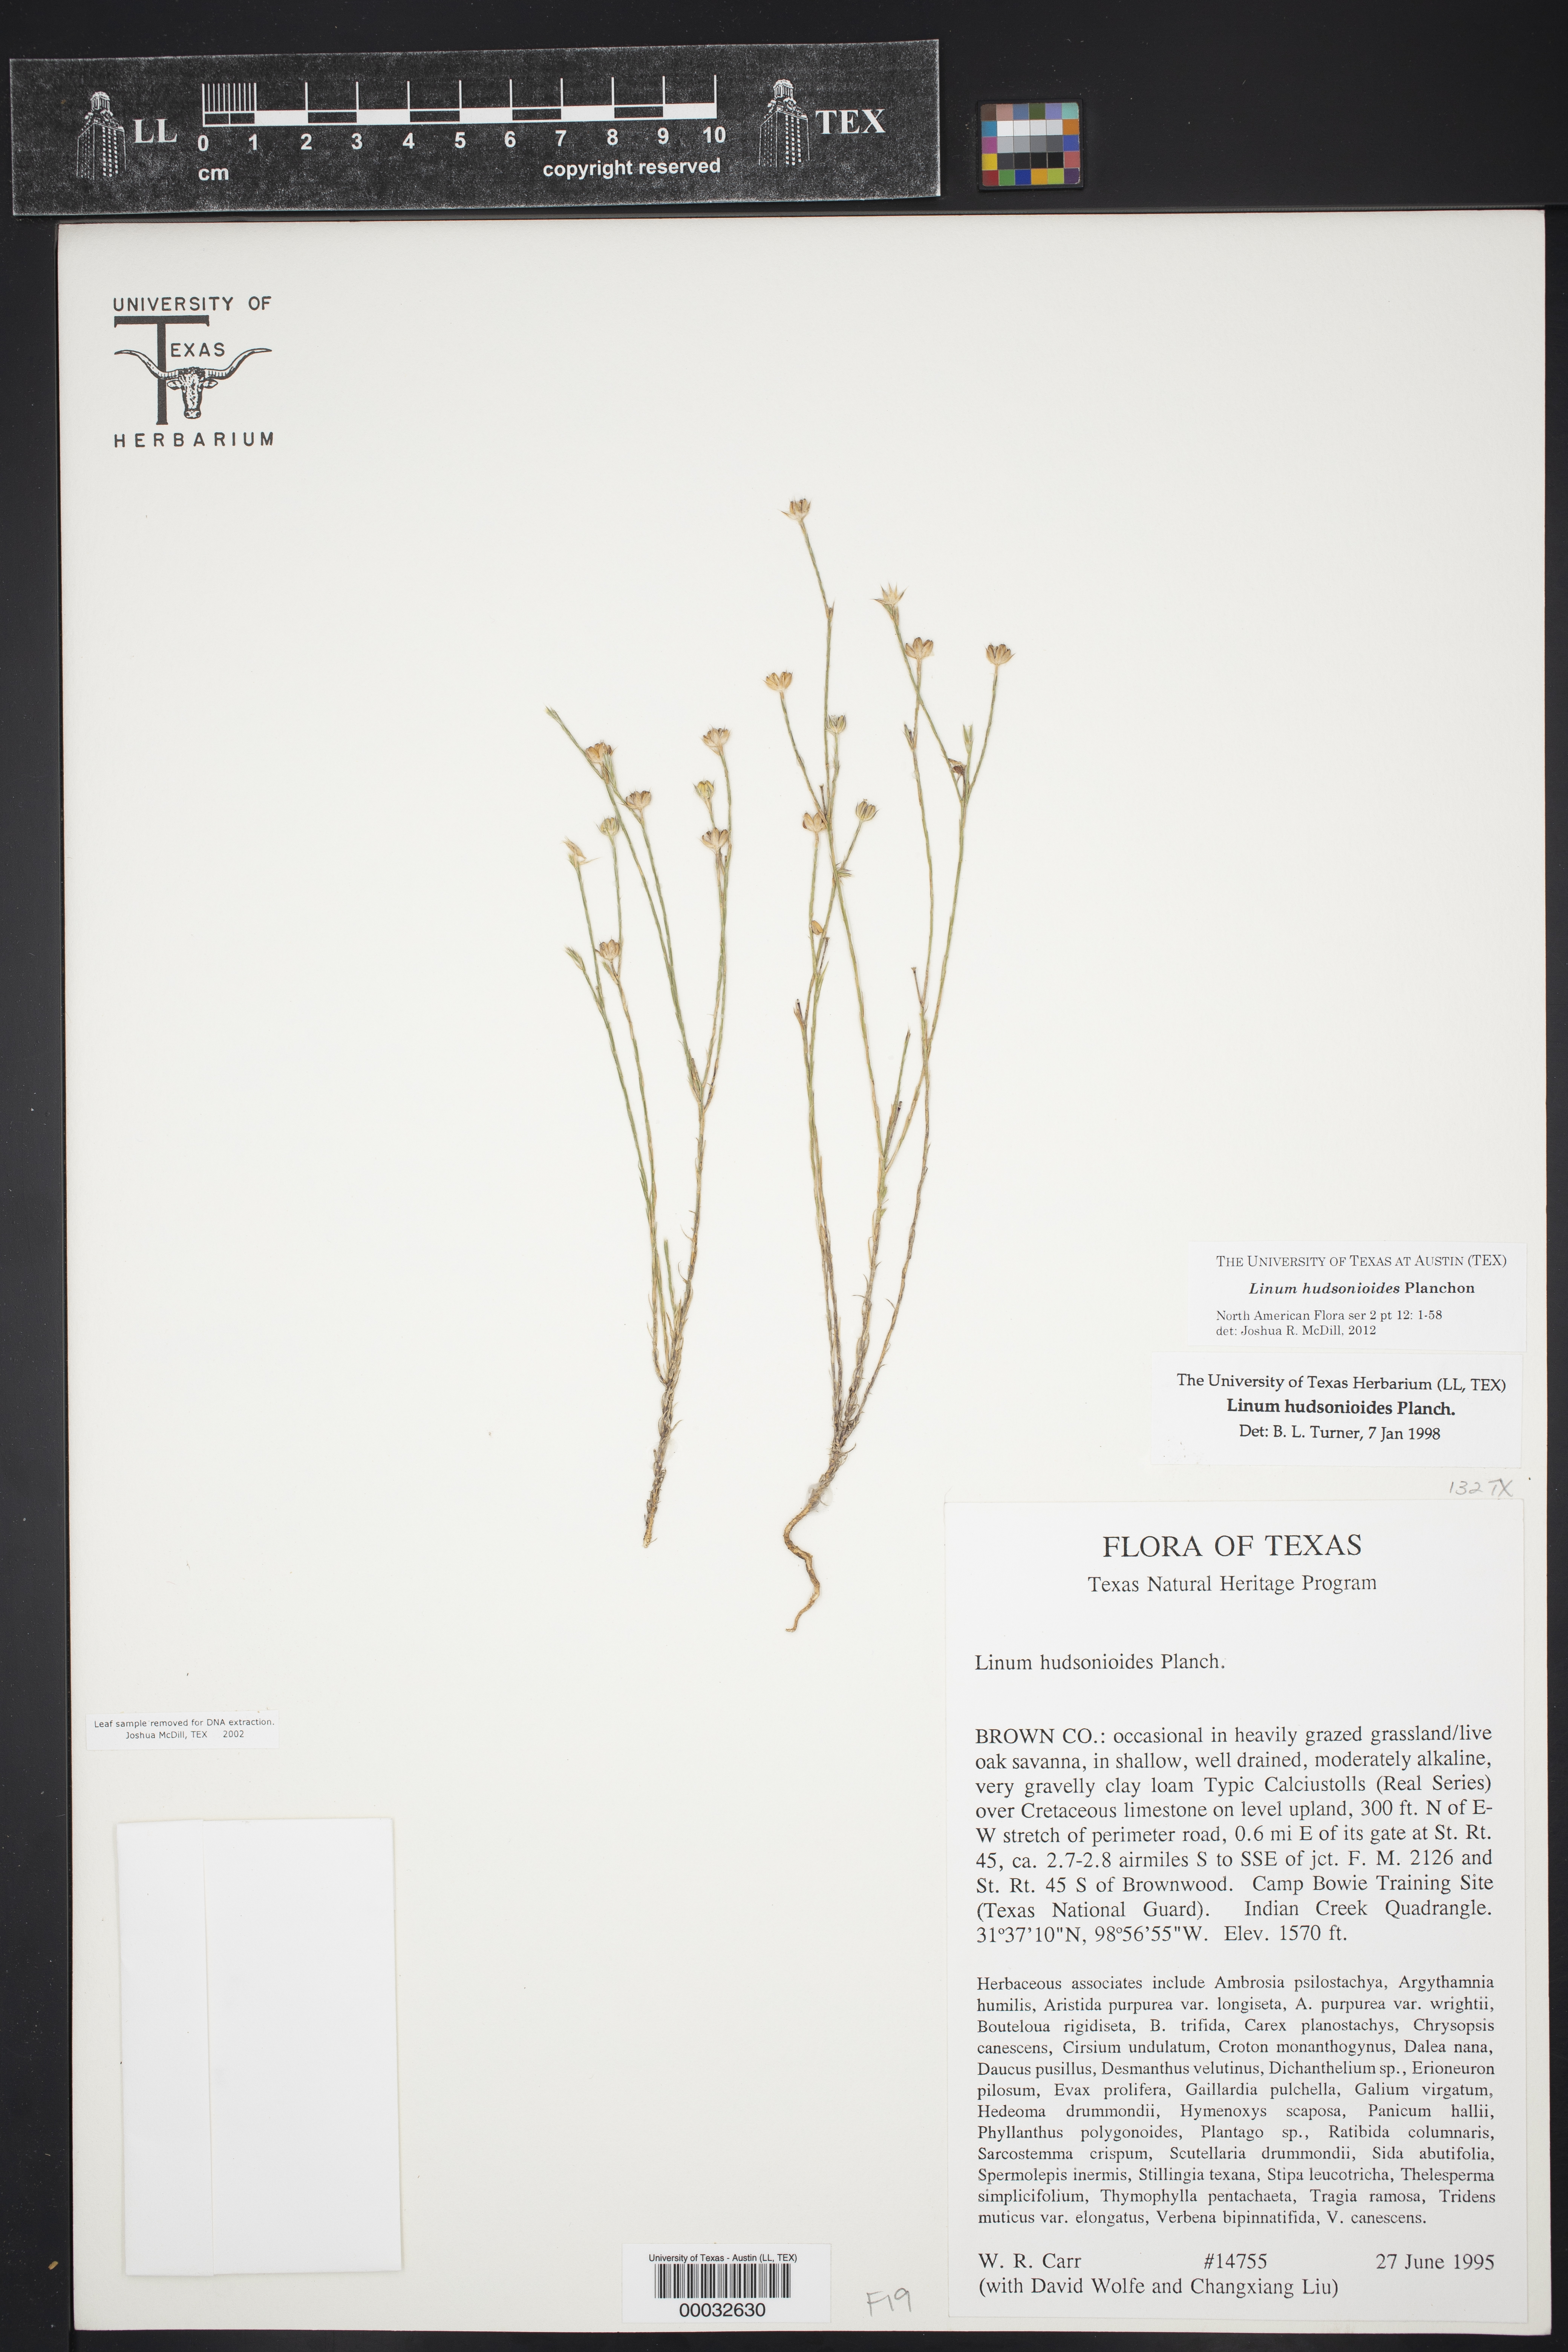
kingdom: Plantae
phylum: Tracheophyta
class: Magnoliopsida
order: Malpighiales
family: Linaceae
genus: Linum
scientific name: Linum hudsonioides
